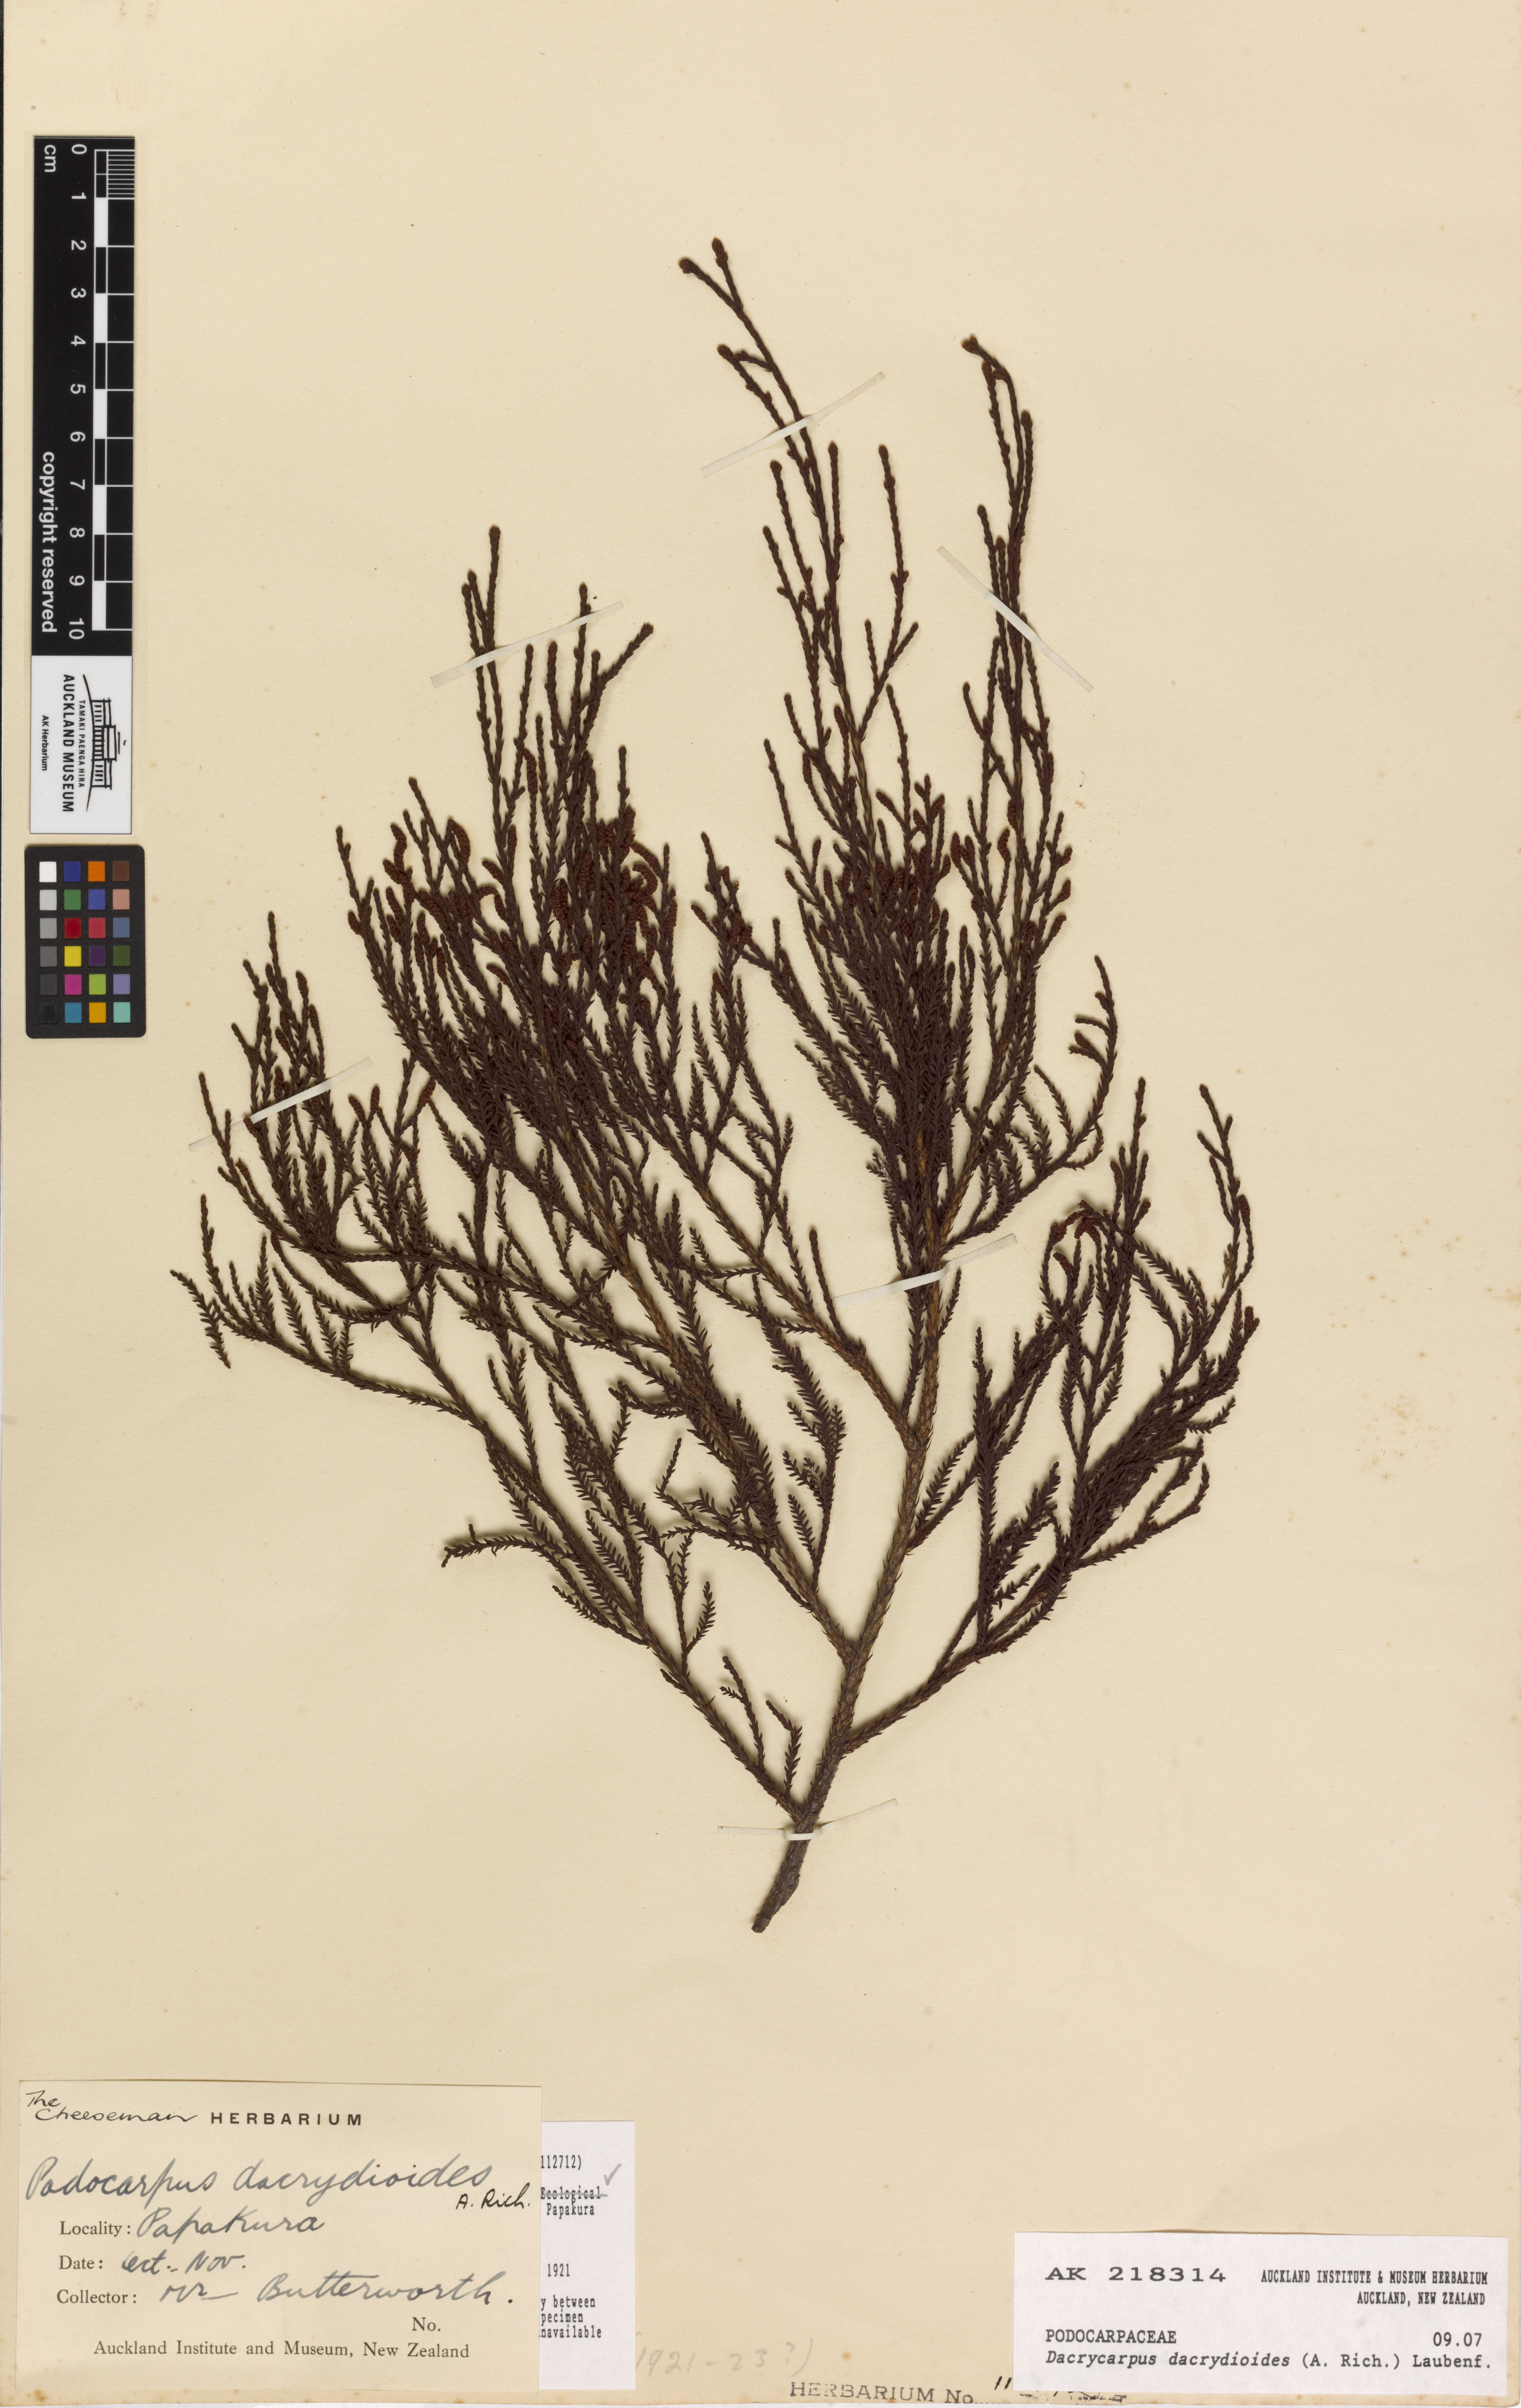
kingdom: Plantae
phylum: Tracheophyta
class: Pinopsida
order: Pinales
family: Podocarpaceae
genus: Dacrycarpus
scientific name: Dacrycarpus dacrydioides
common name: White pine
